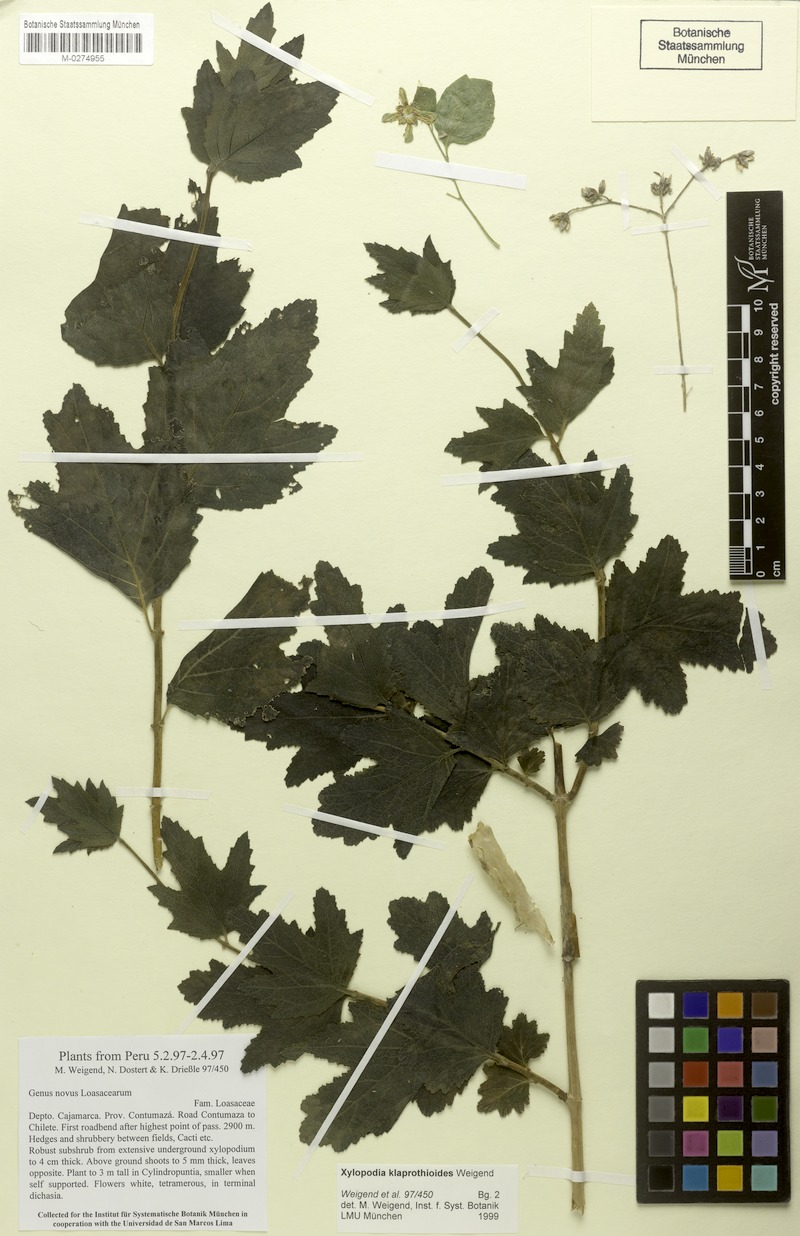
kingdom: Plantae
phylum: Tracheophyta
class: Magnoliopsida
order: Cornales
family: Loasaceae
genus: Xylopodia
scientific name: Xylopodia klaprothioides
